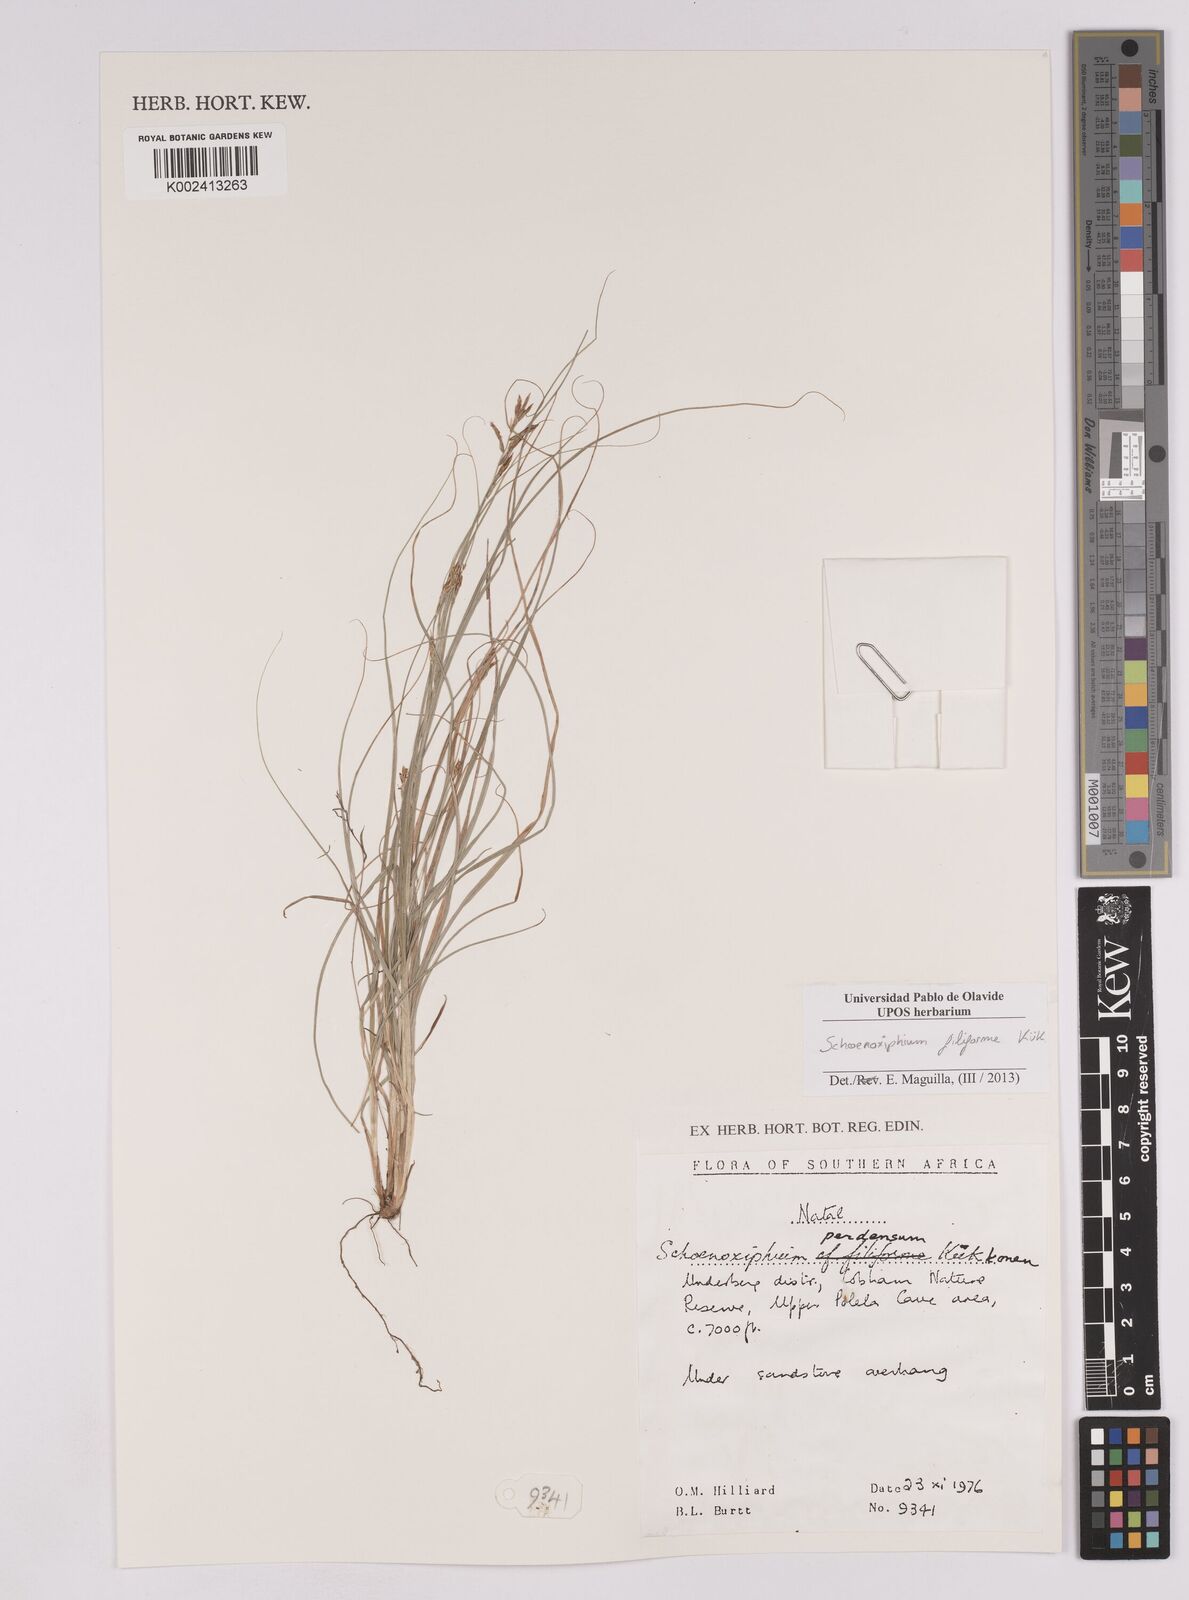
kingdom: Plantae
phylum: Tracheophyta
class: Liliopsida
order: Poales
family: Cyperaceae
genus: Carex
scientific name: Carex killickii
